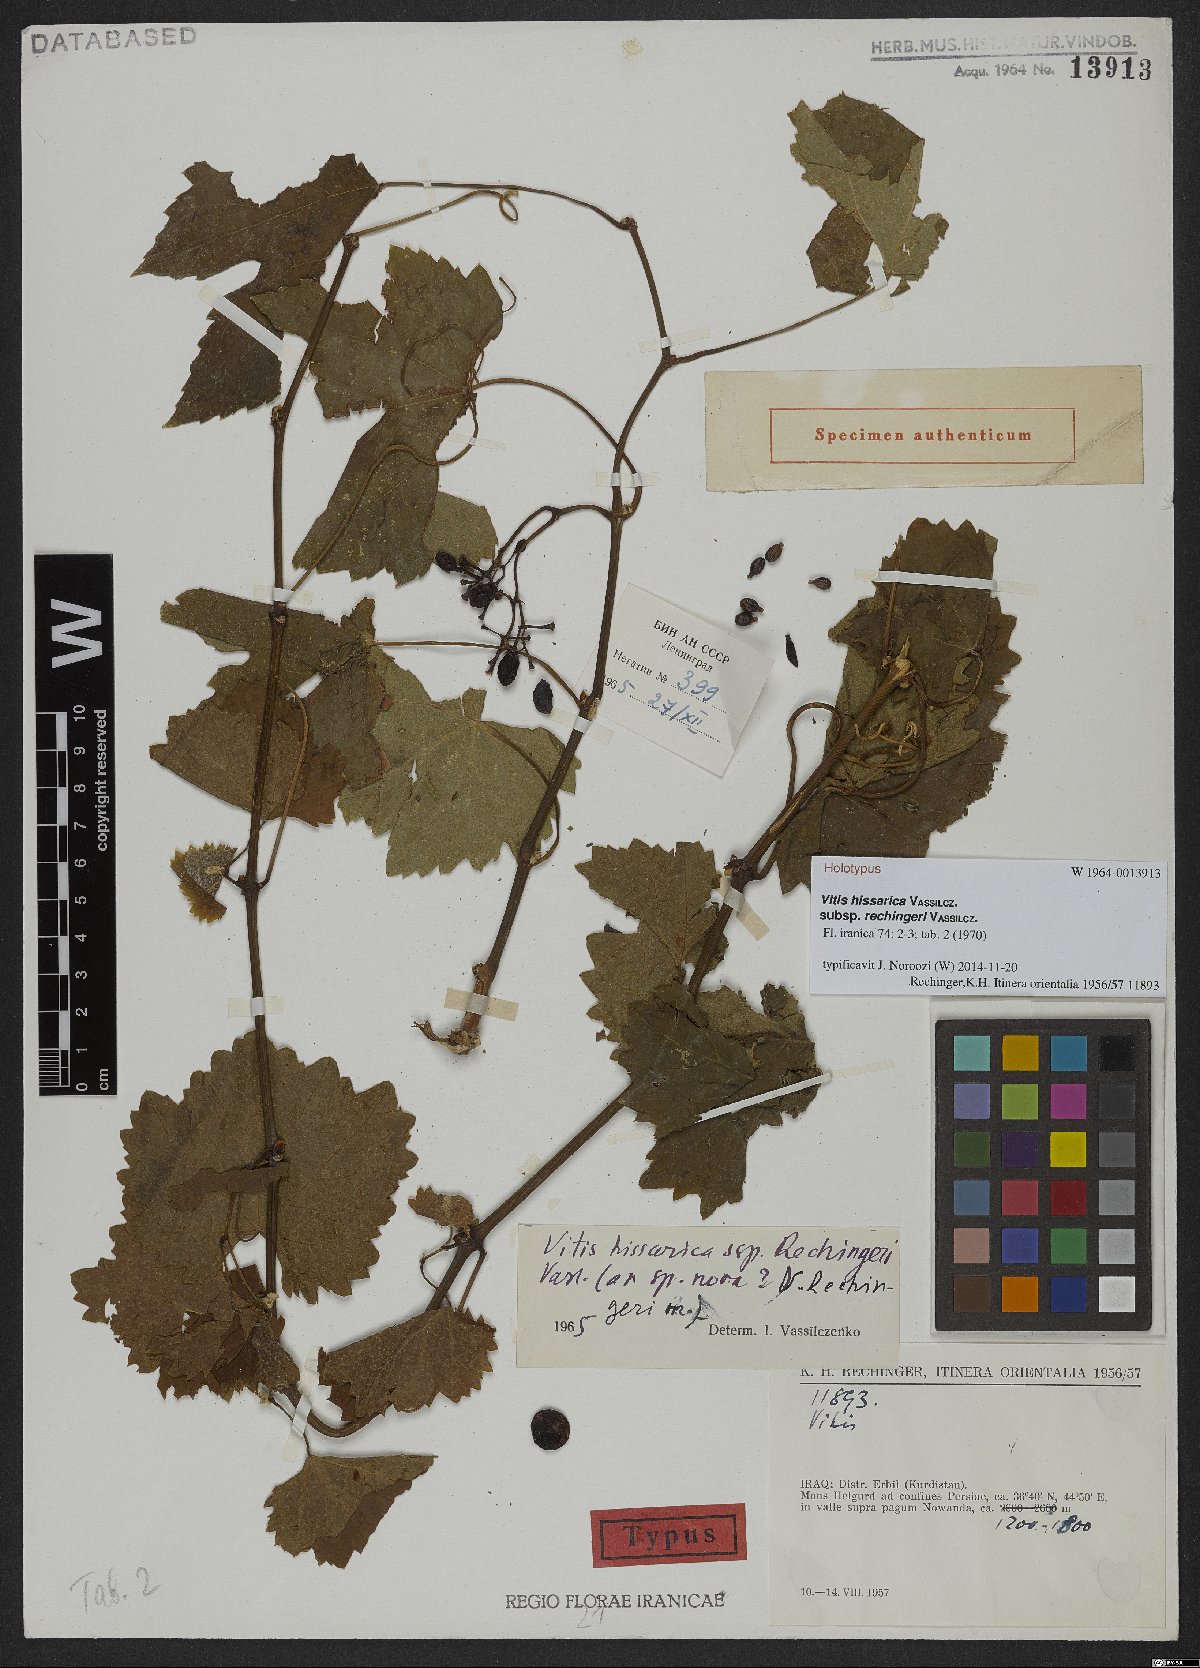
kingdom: Plantae
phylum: Tracheophyta
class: Magnoliopsida
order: Vitales
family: Vitaceae
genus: Vitis
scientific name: Vitis gmelinii
